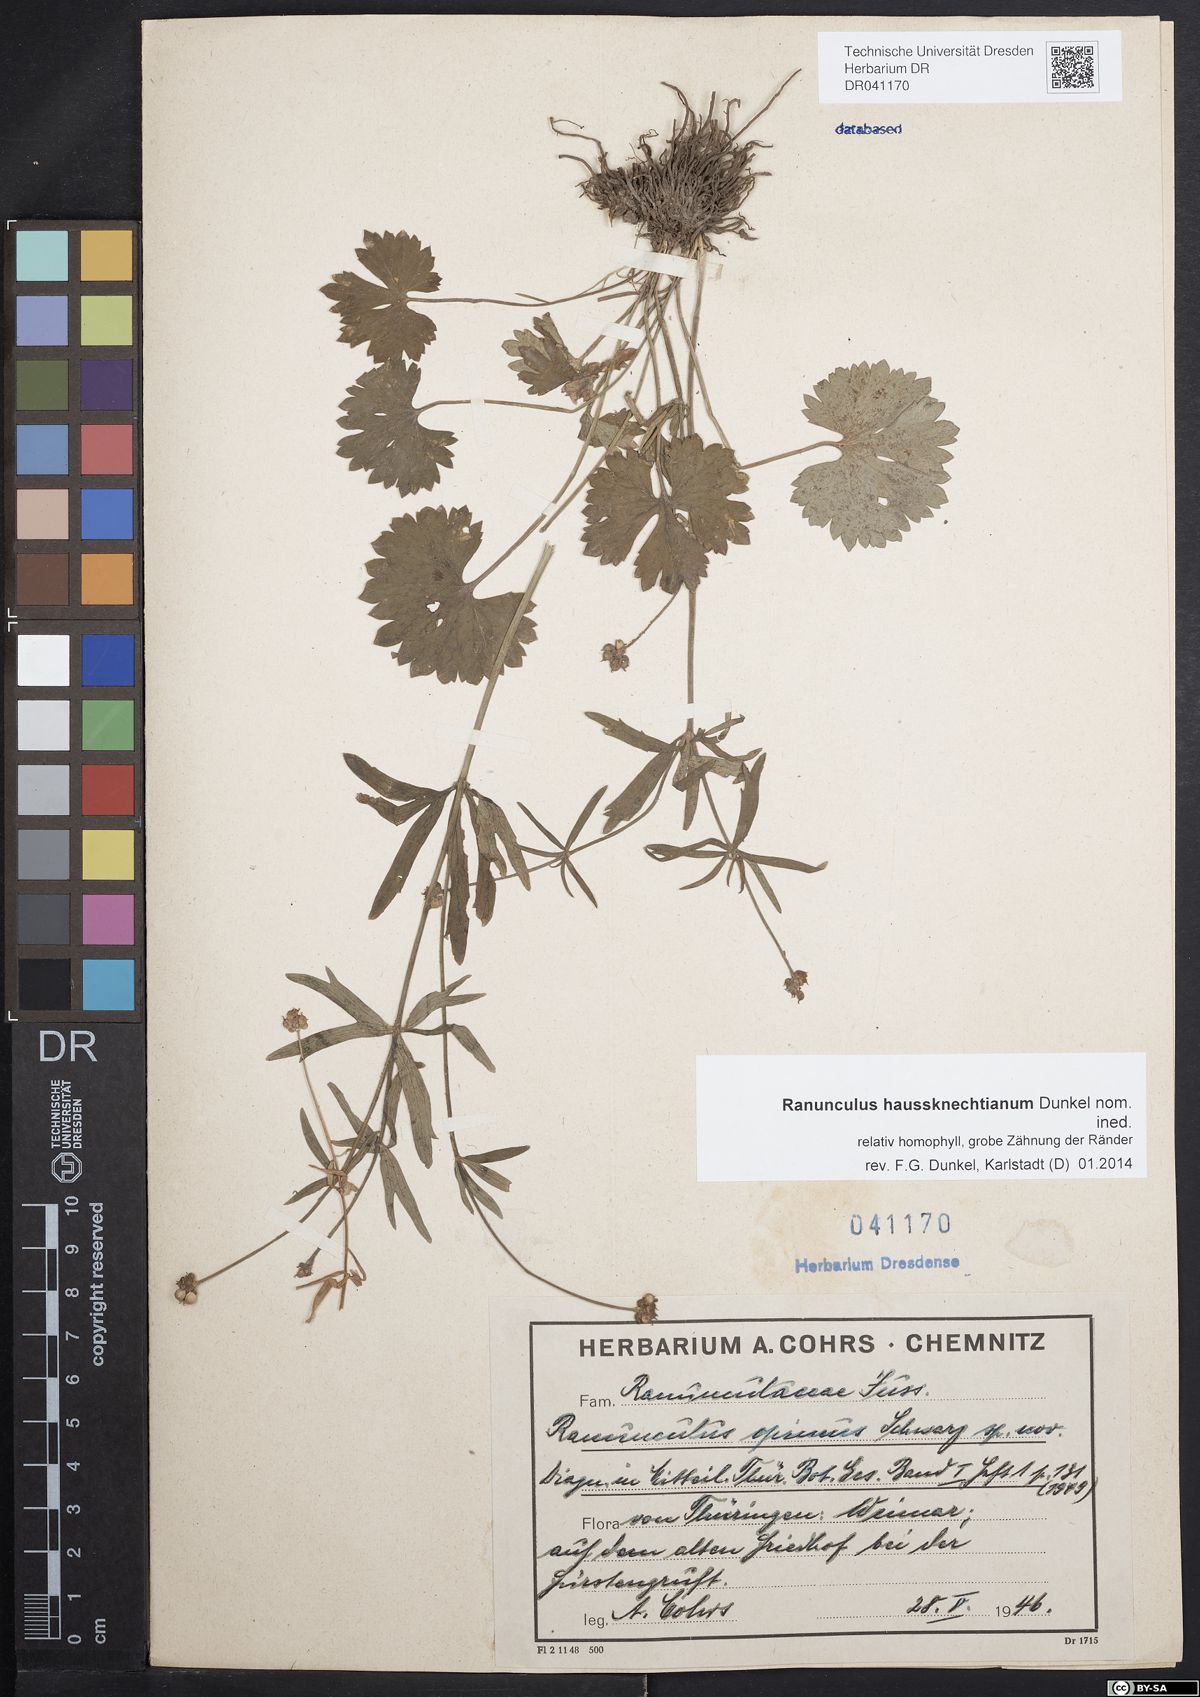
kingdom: Plantae
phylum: Tracheophyta
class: Magnoliopsida
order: Ranunculales
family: Ranunculaceae
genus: Ranunculus
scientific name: Ranunculus varicus
